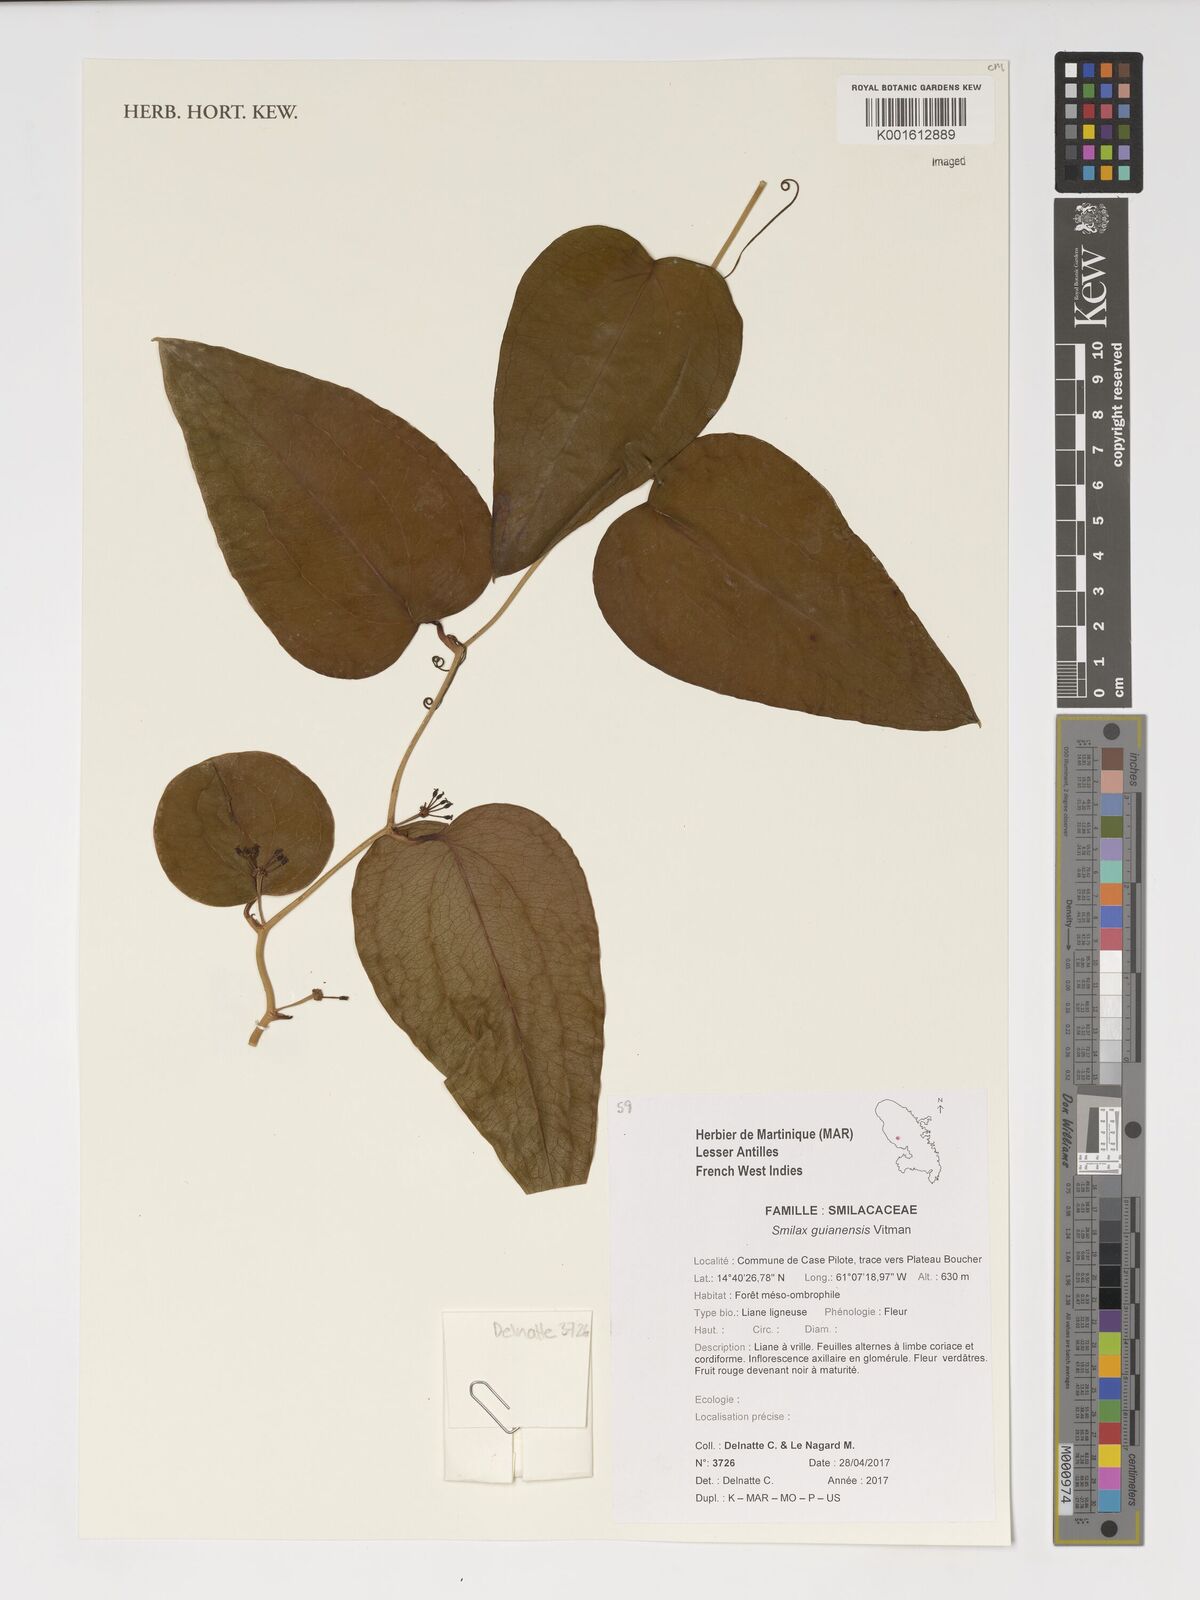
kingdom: Plantae
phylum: Tracheophyta
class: Liliopsida
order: Liliales
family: Smilacaceae
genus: Smilax
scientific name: Smilax guianensis
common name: Basket hoop
